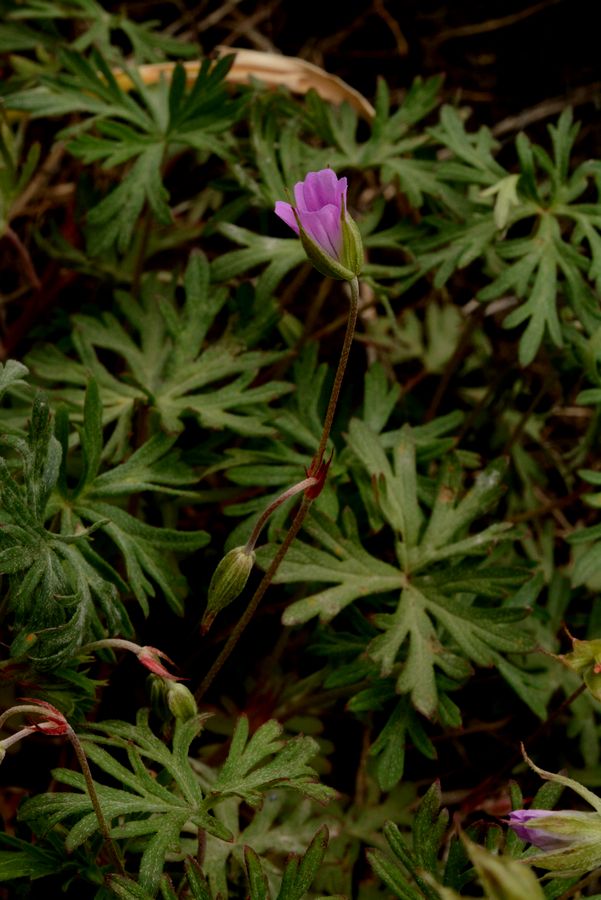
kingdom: Plantae
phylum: Tracheophyta
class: Magnoliopsida
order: Geraniales
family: Geraniaceae
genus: Geranium
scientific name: Geranium columbinum
